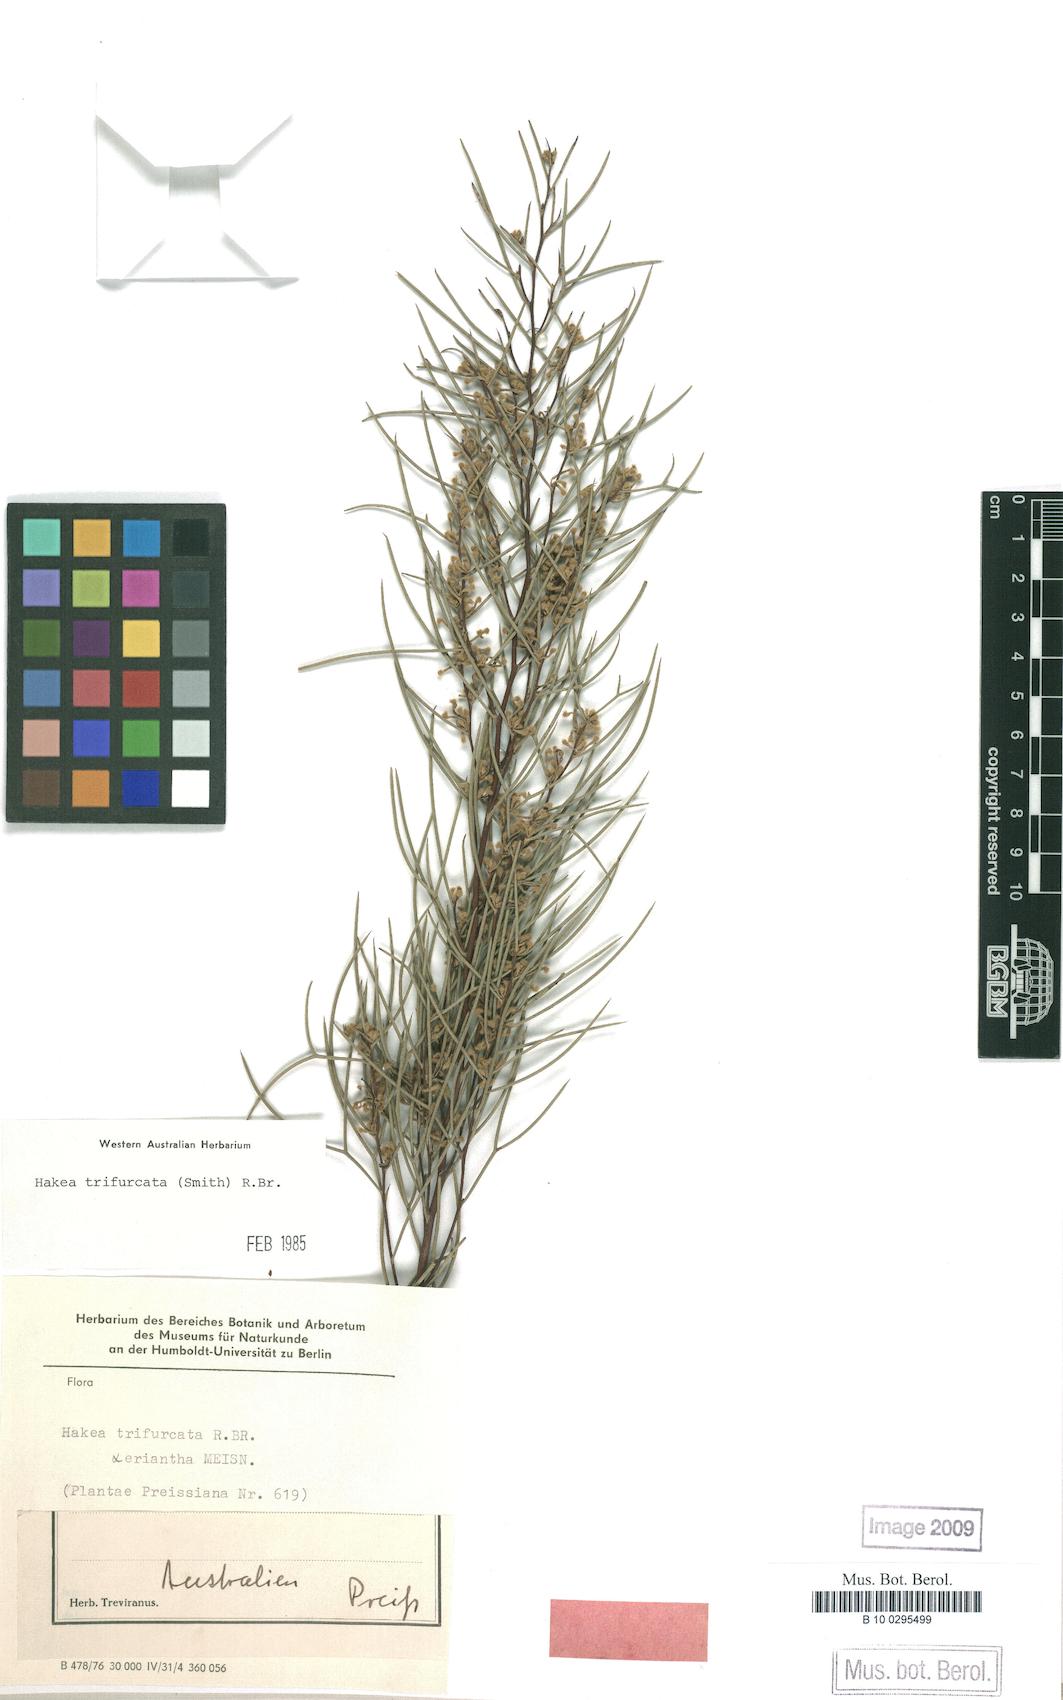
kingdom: Plantae
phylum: Tracheophyta
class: Magnoliopsida
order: Proteales
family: Proteaceae
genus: Hakea
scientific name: Hakea trifurcata
